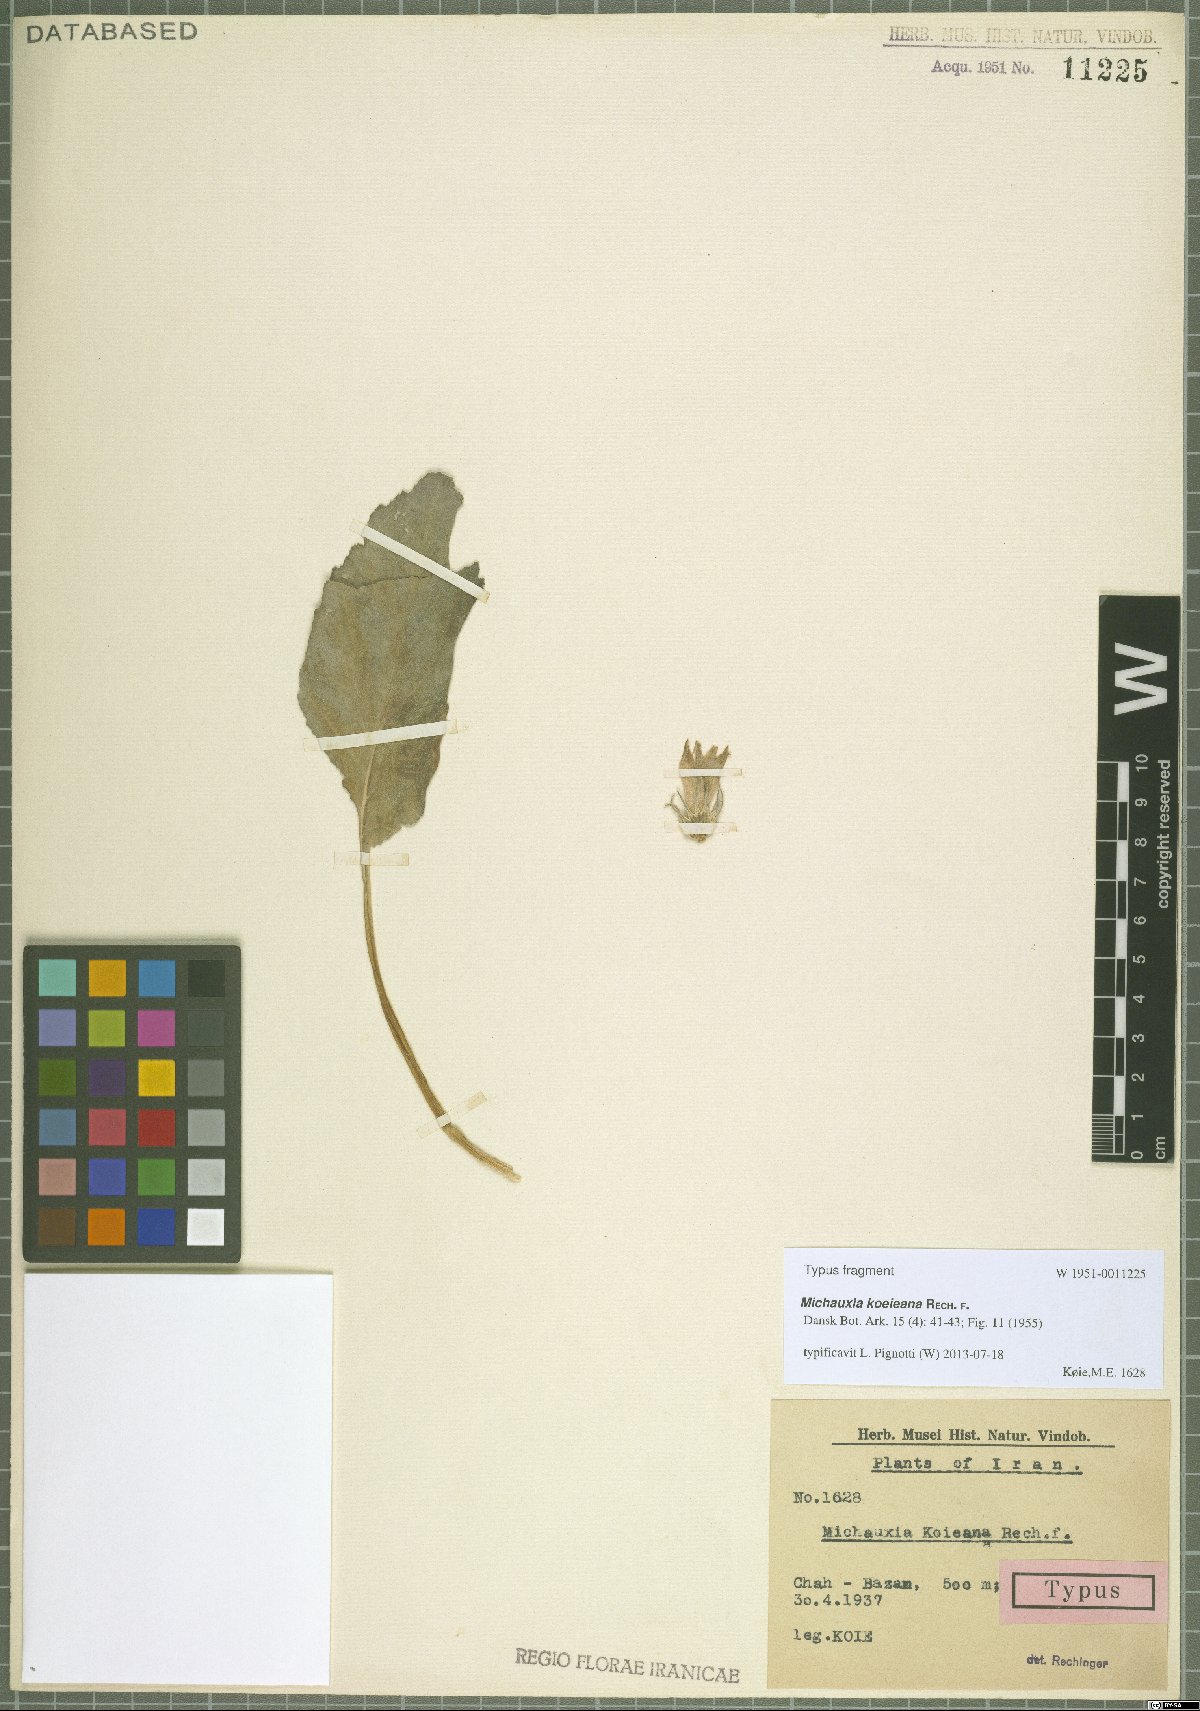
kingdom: Plantae
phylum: Tracheophyta
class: Magnoliopsida
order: Asterales
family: Campanulaceae
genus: Michauxia
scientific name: Michauxia koeieana
